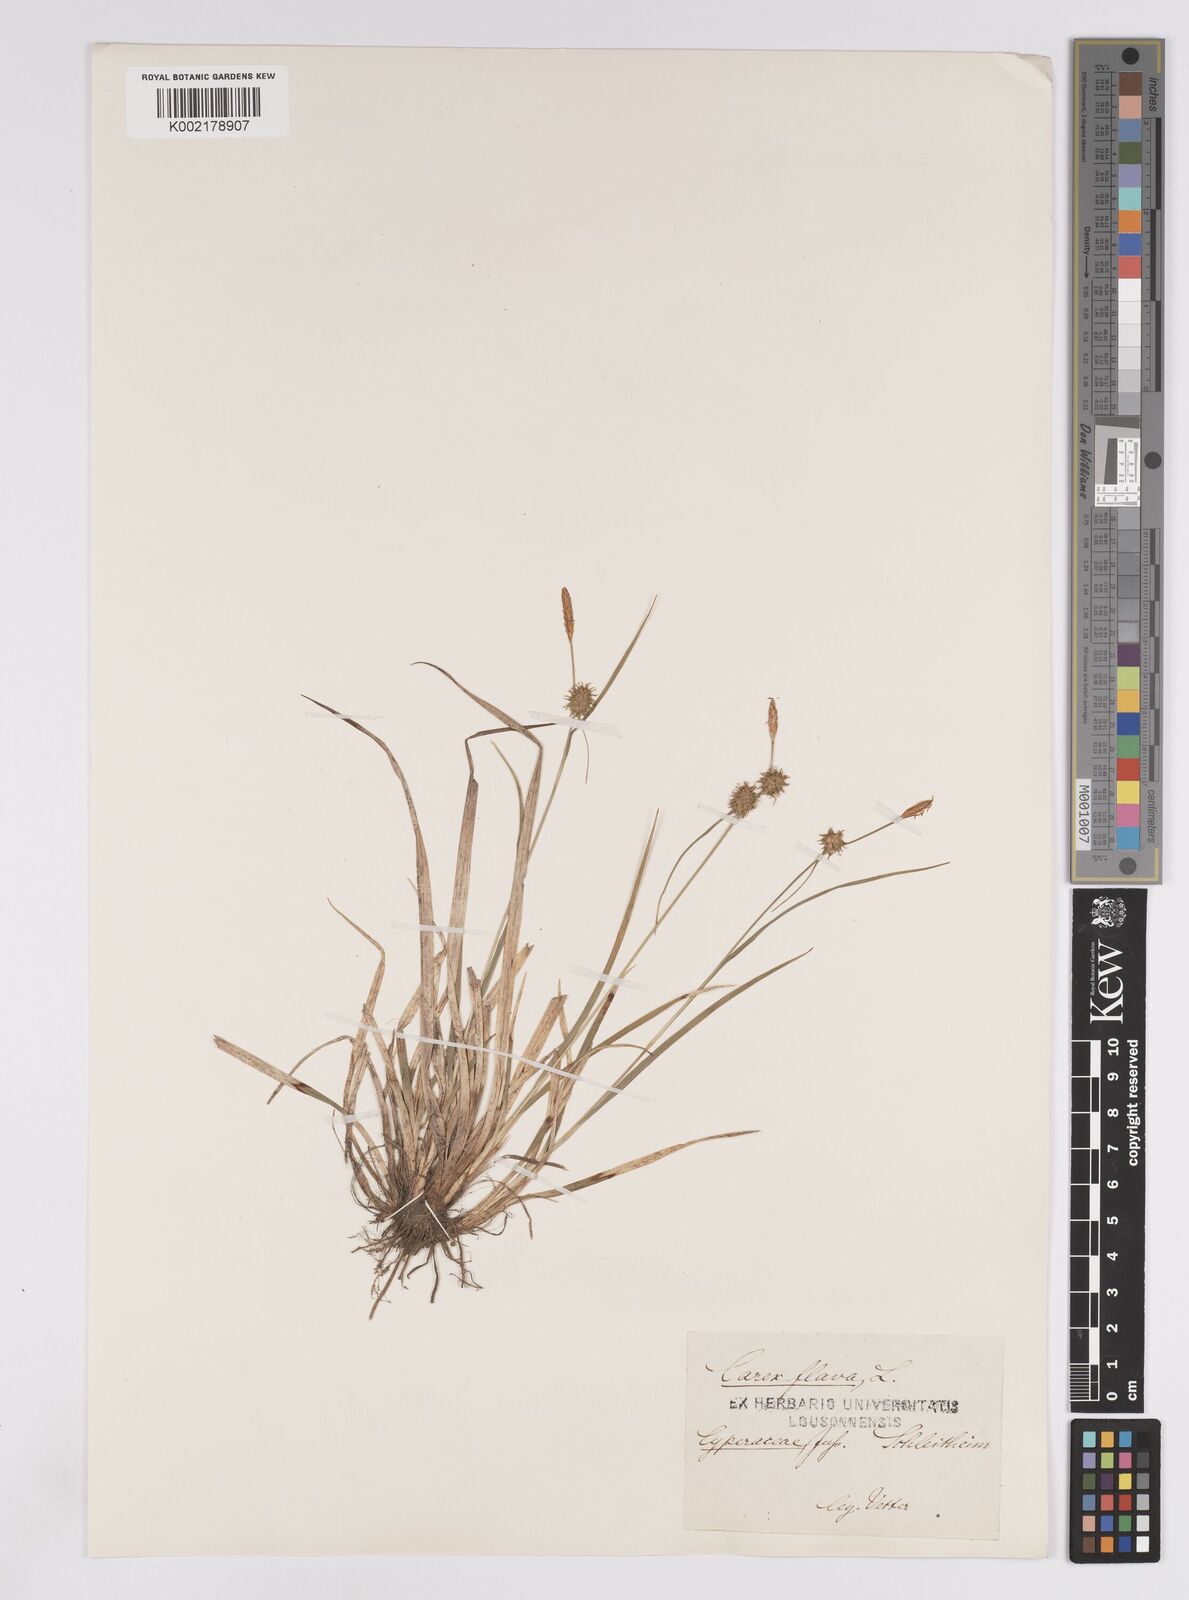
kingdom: Plantae
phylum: Tracheophyta
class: Liliopsida
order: Poales
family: Cyperaceae
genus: Carex
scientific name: Carex lepidocarpa
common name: Long-stalked yellow-sedge
